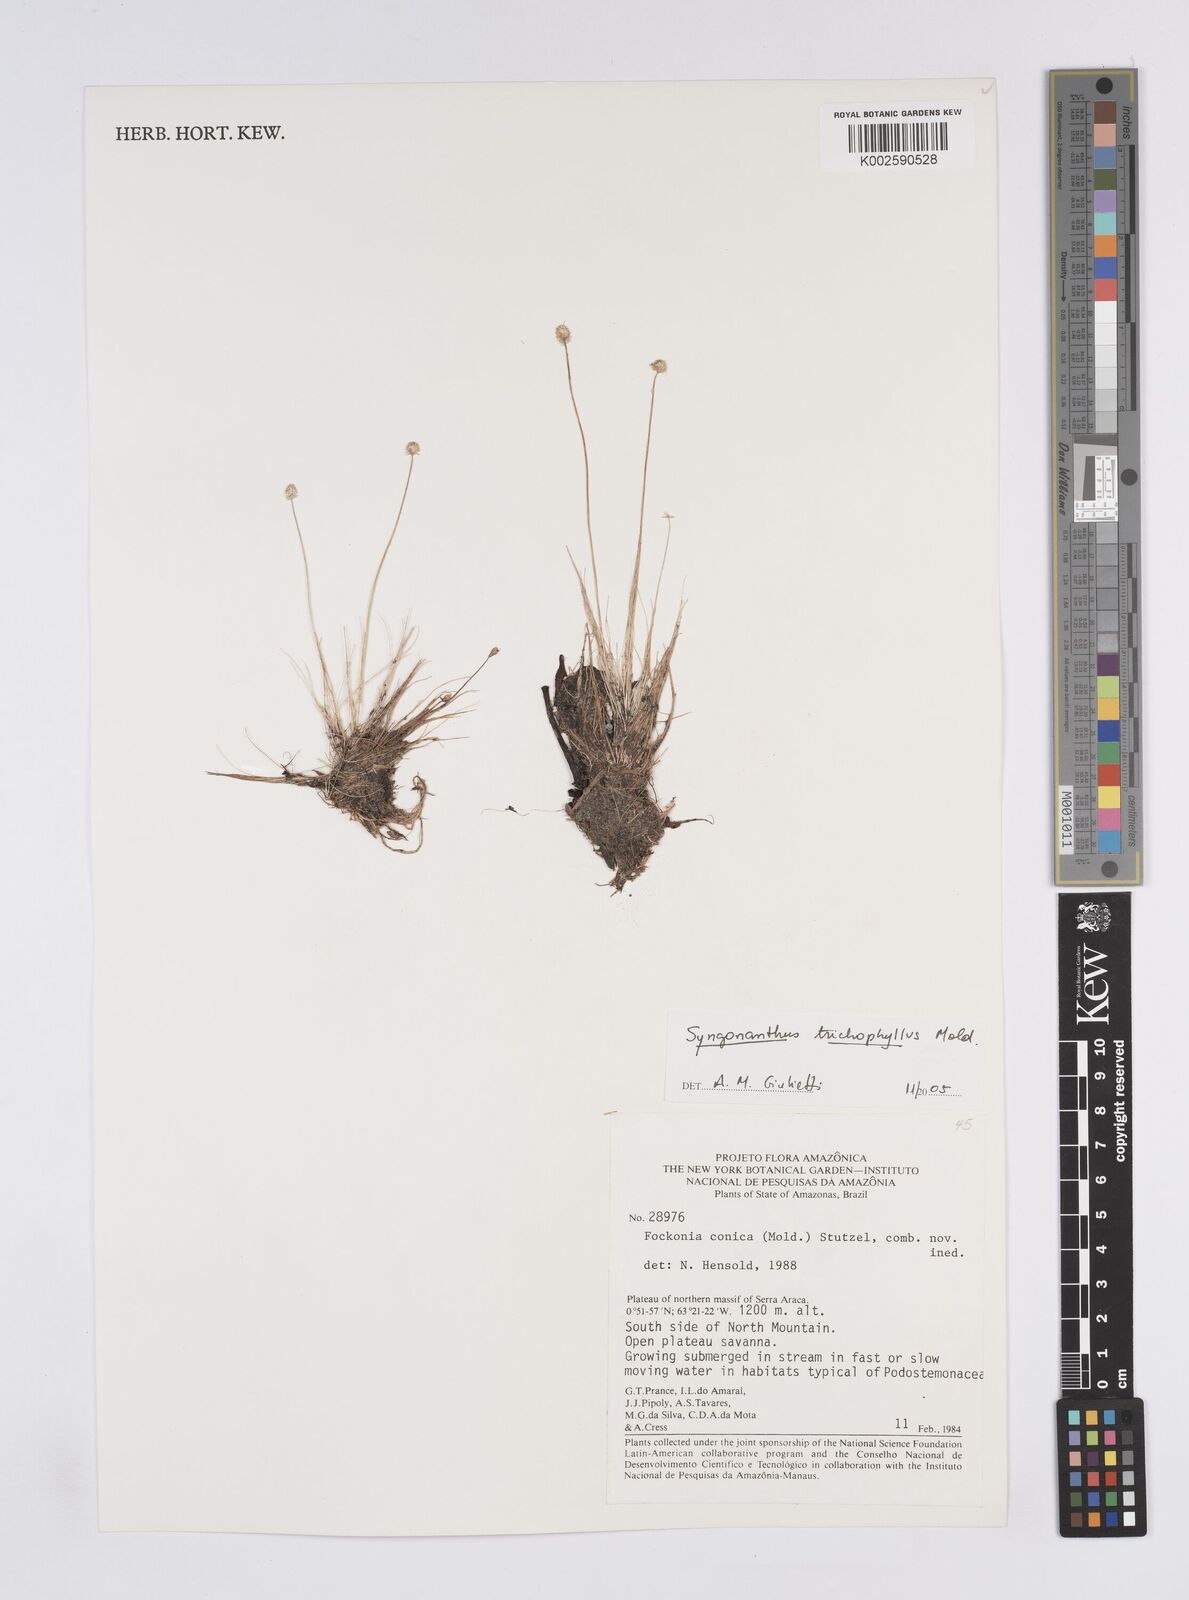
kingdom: Plantae
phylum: Tracheophyta
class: Liliopsida
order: Poales
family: Eriocaulaceae
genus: Syngonanthus
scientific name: Syngonanthus trichophyllus
